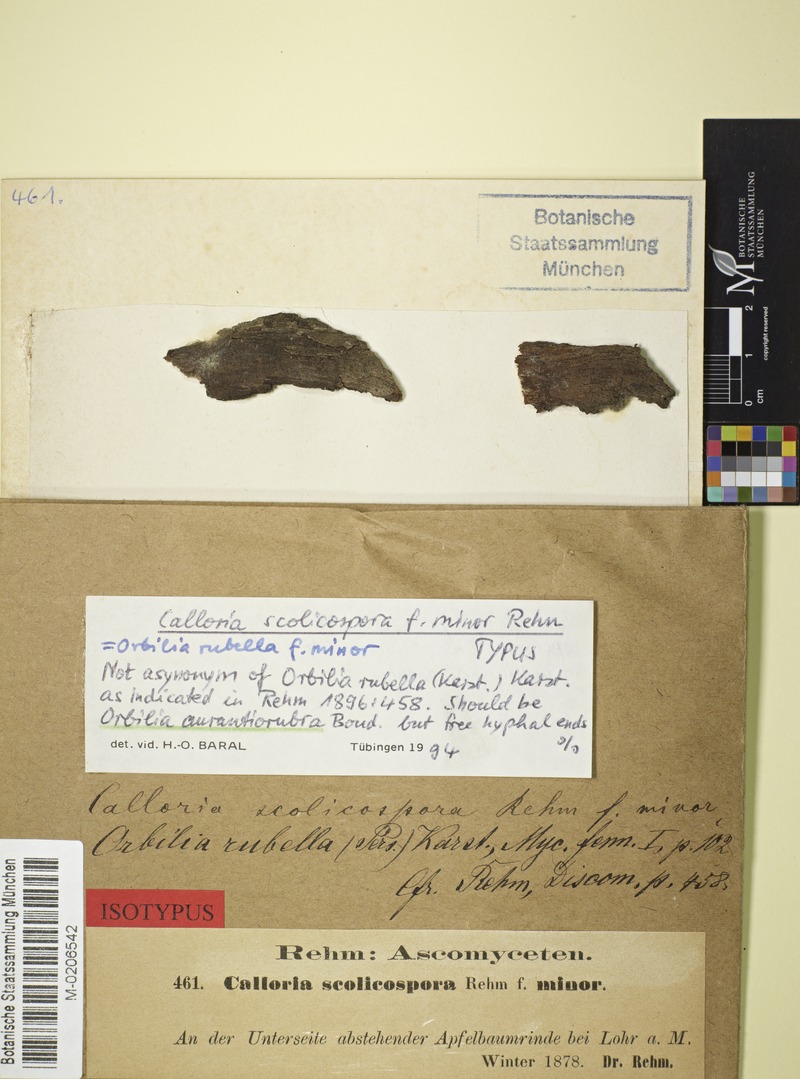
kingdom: Fungi
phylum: Ascomycota
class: Orbiliomycetes
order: Orbiliales
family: Orbiliaceae
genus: Orbilia
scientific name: Orbilia aurantiorubra
